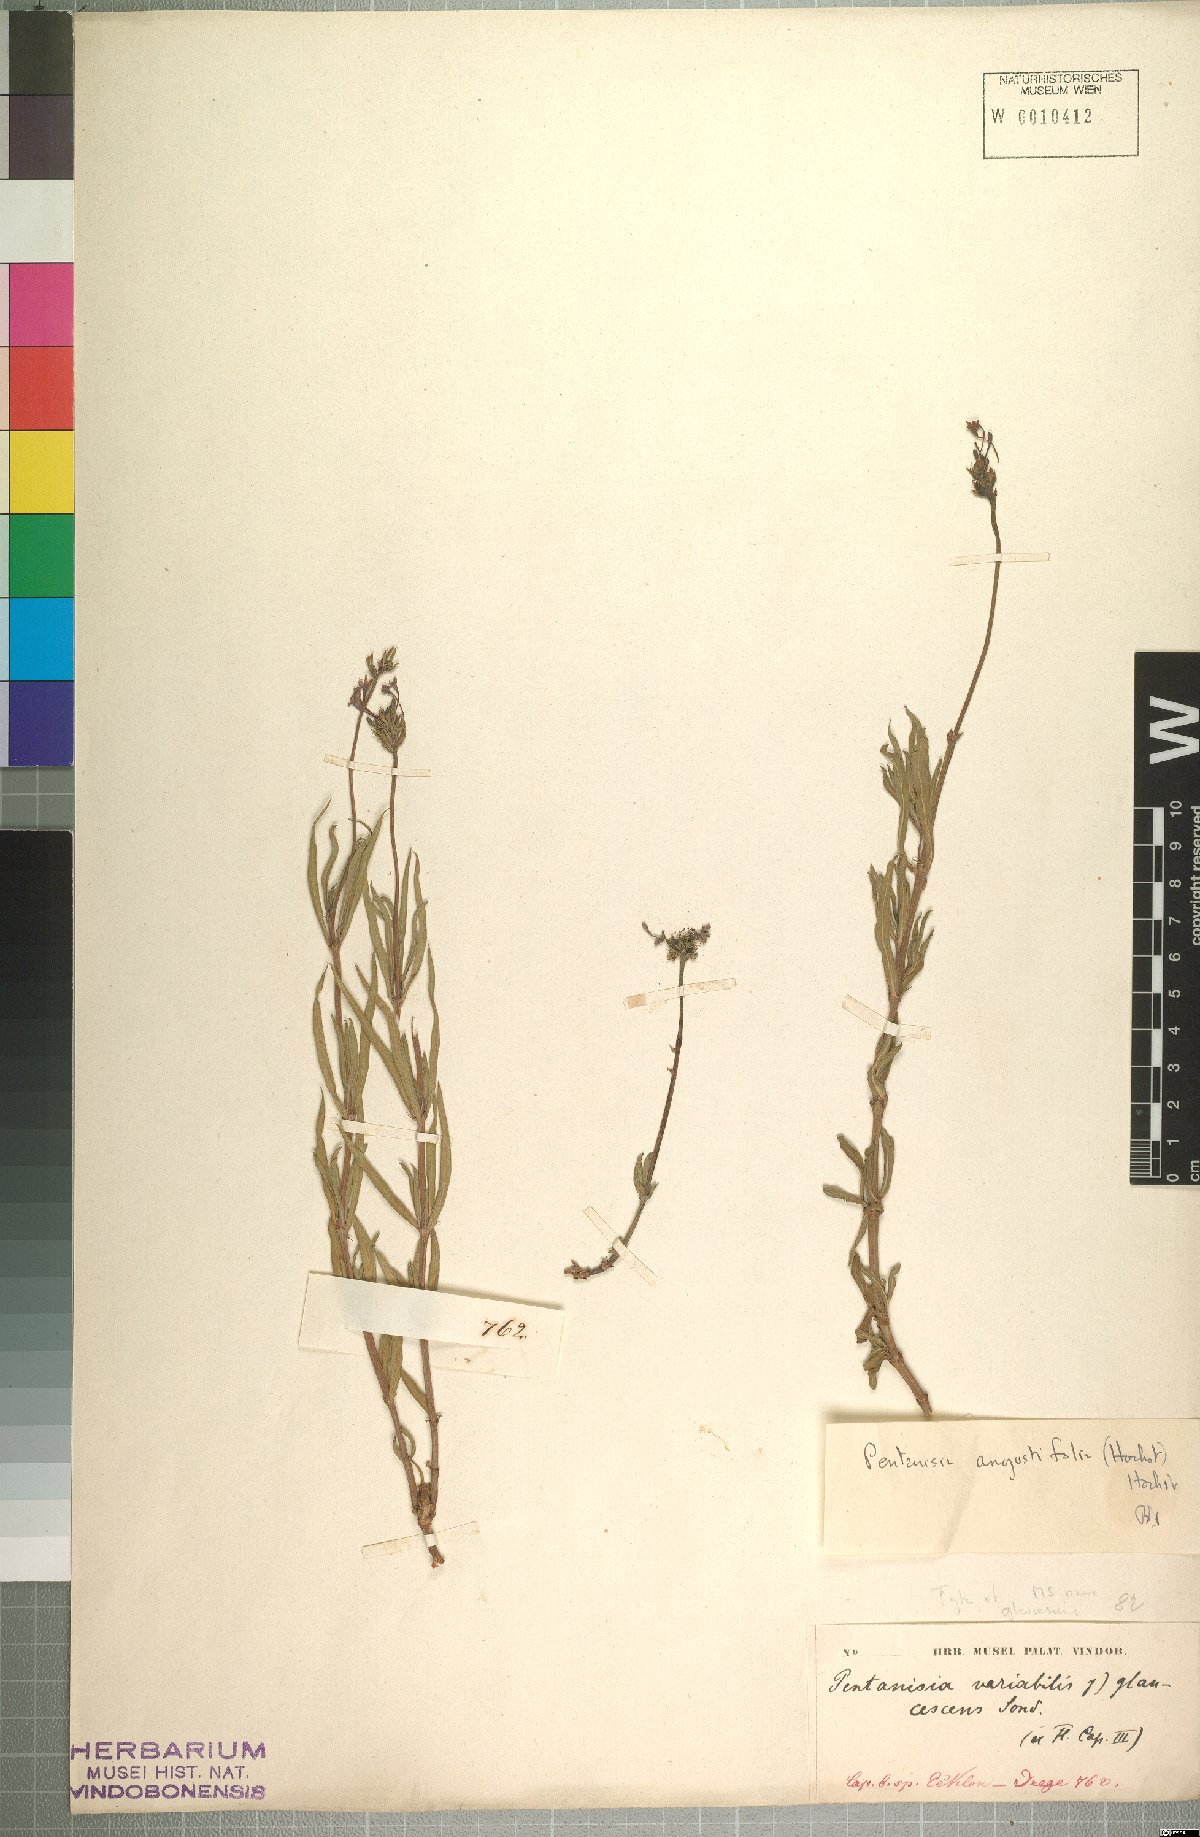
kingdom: Plantae
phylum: Tracheophyta
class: Magnoliopsida
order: Gentianales
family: Rubiaceae
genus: Pentanisia
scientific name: Pentanisia angustifolia
